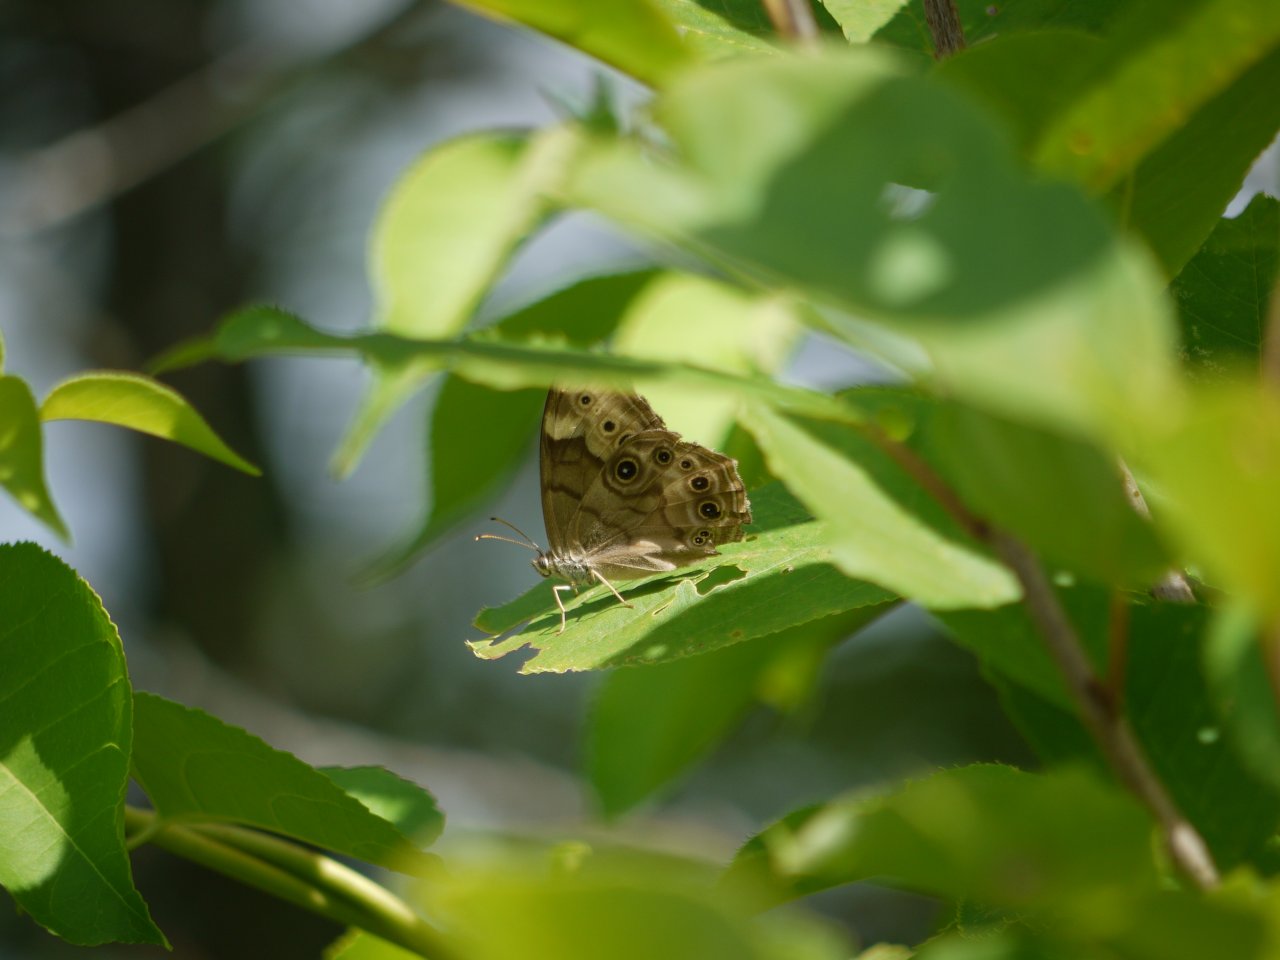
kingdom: Animalia
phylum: Arthropoda
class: Insecta
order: Lepidoptera
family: Nymphalidae
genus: Lethe
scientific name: Lethe anthedon
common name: Northern Pearly-Eye
